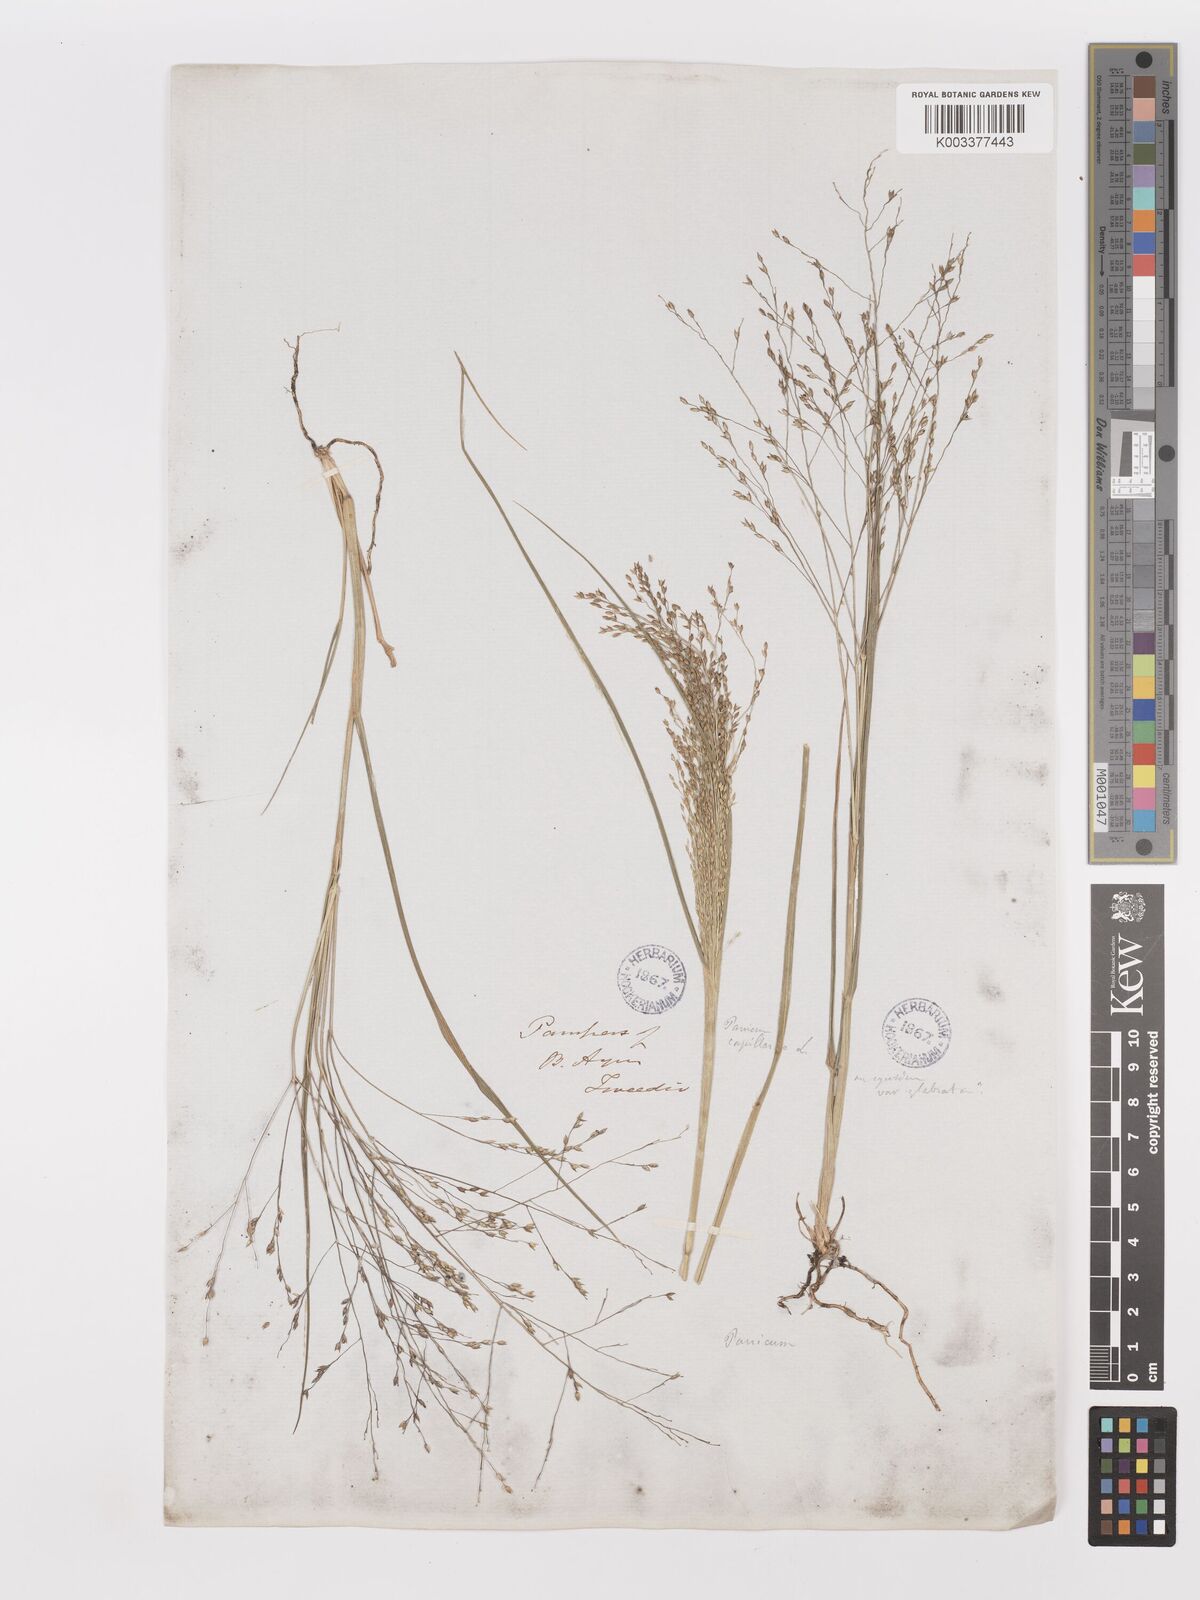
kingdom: Plantae
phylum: Tracheophyta
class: Liliopsida
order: Poales
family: Poaceae
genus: Panicum
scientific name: Panicum bergii
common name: Berg's panicgrass
